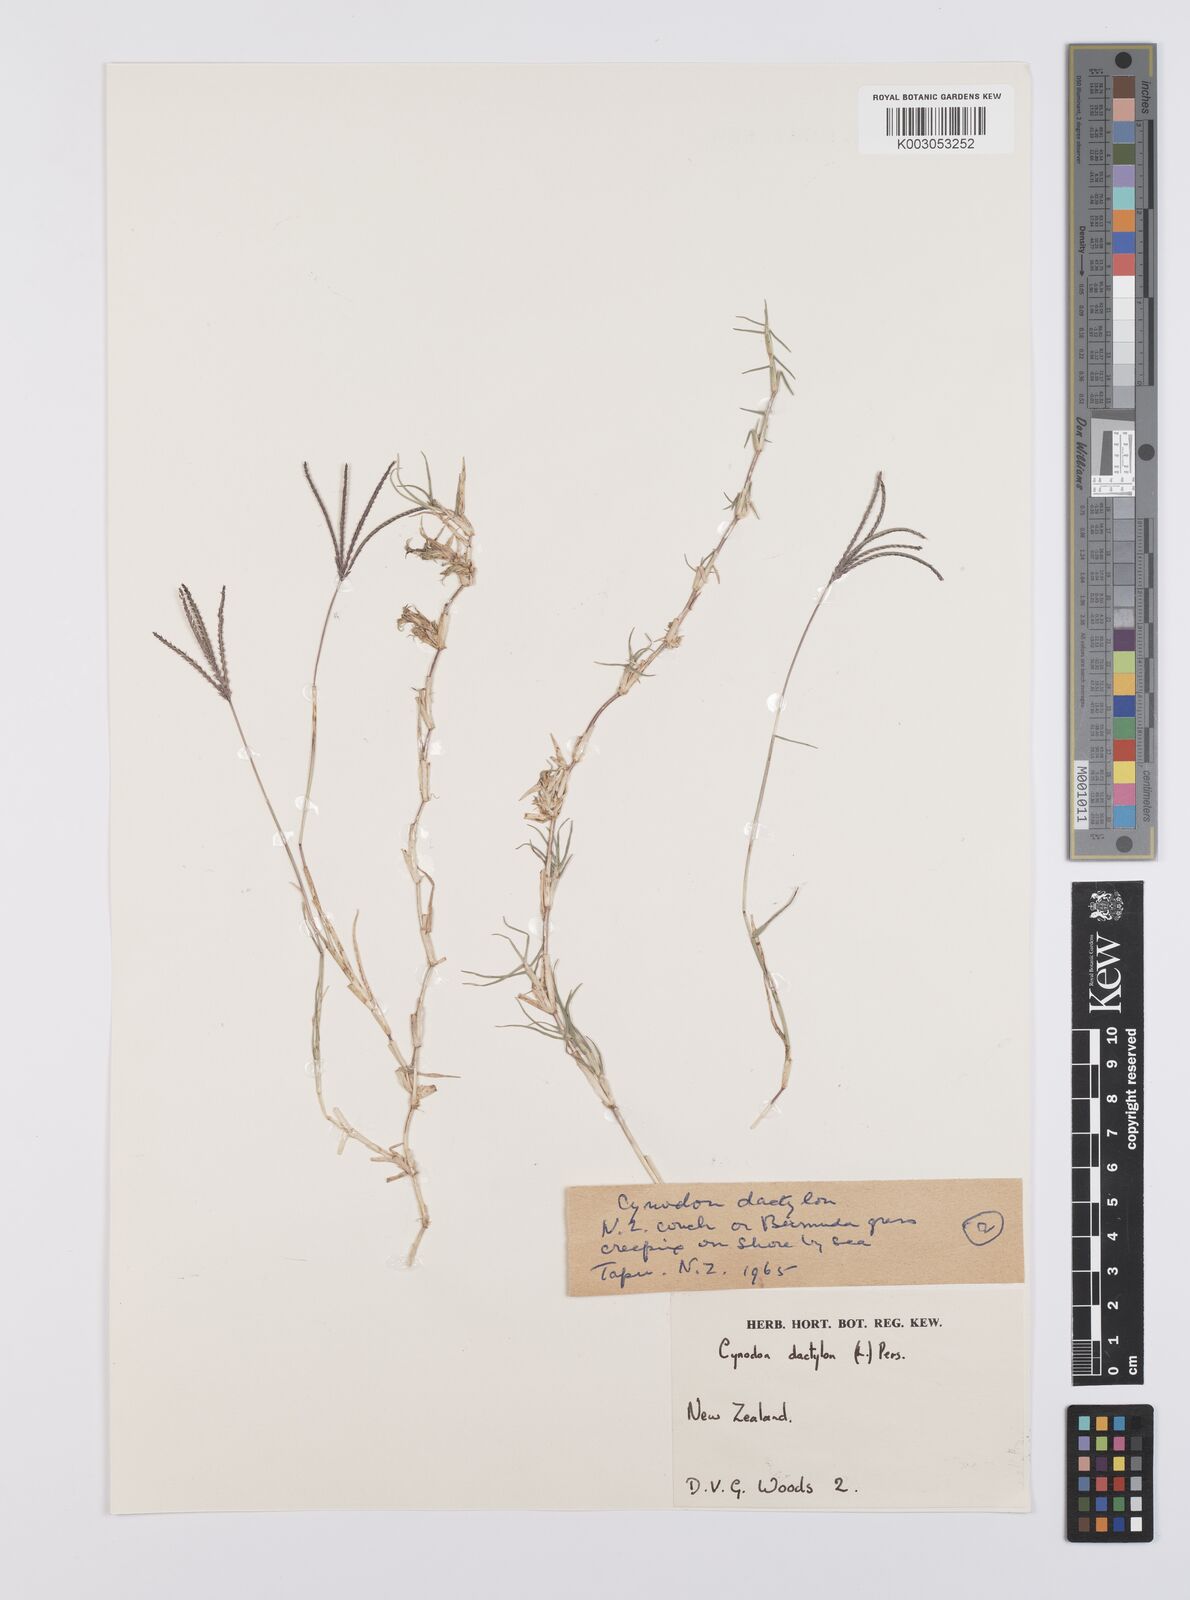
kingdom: Plantae
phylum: Tracheophyta
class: Liliopsida
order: Poales
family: Poaceae
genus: Cynodon
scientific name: Cynodon dactylon
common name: Bermuda grass
